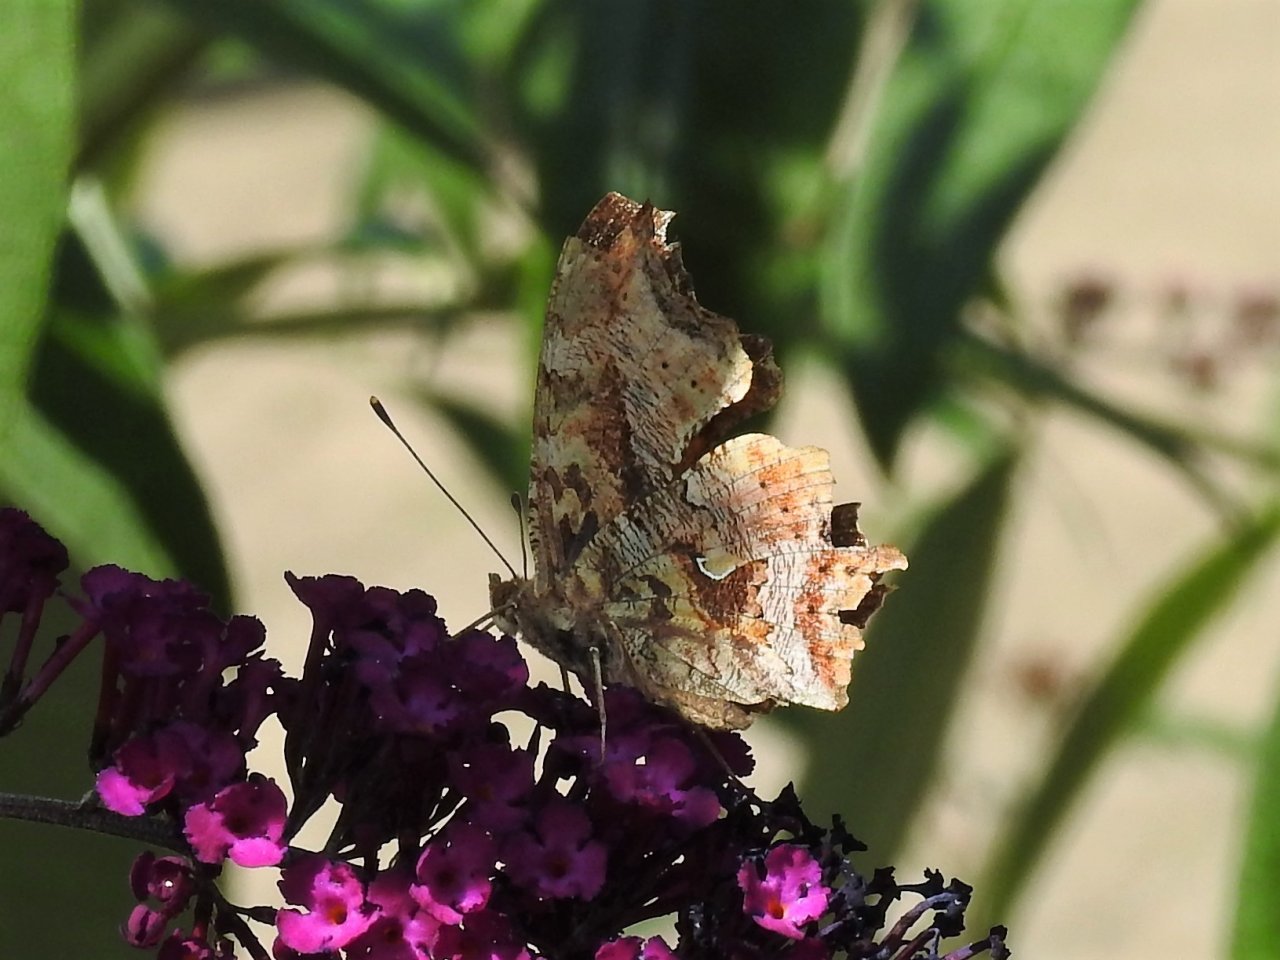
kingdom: Animalia
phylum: Arthropoda
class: Insecta
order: Lepidoptera
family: Nymphalidae
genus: Polygonia
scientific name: Polygonia comma
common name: Eastern Comma
